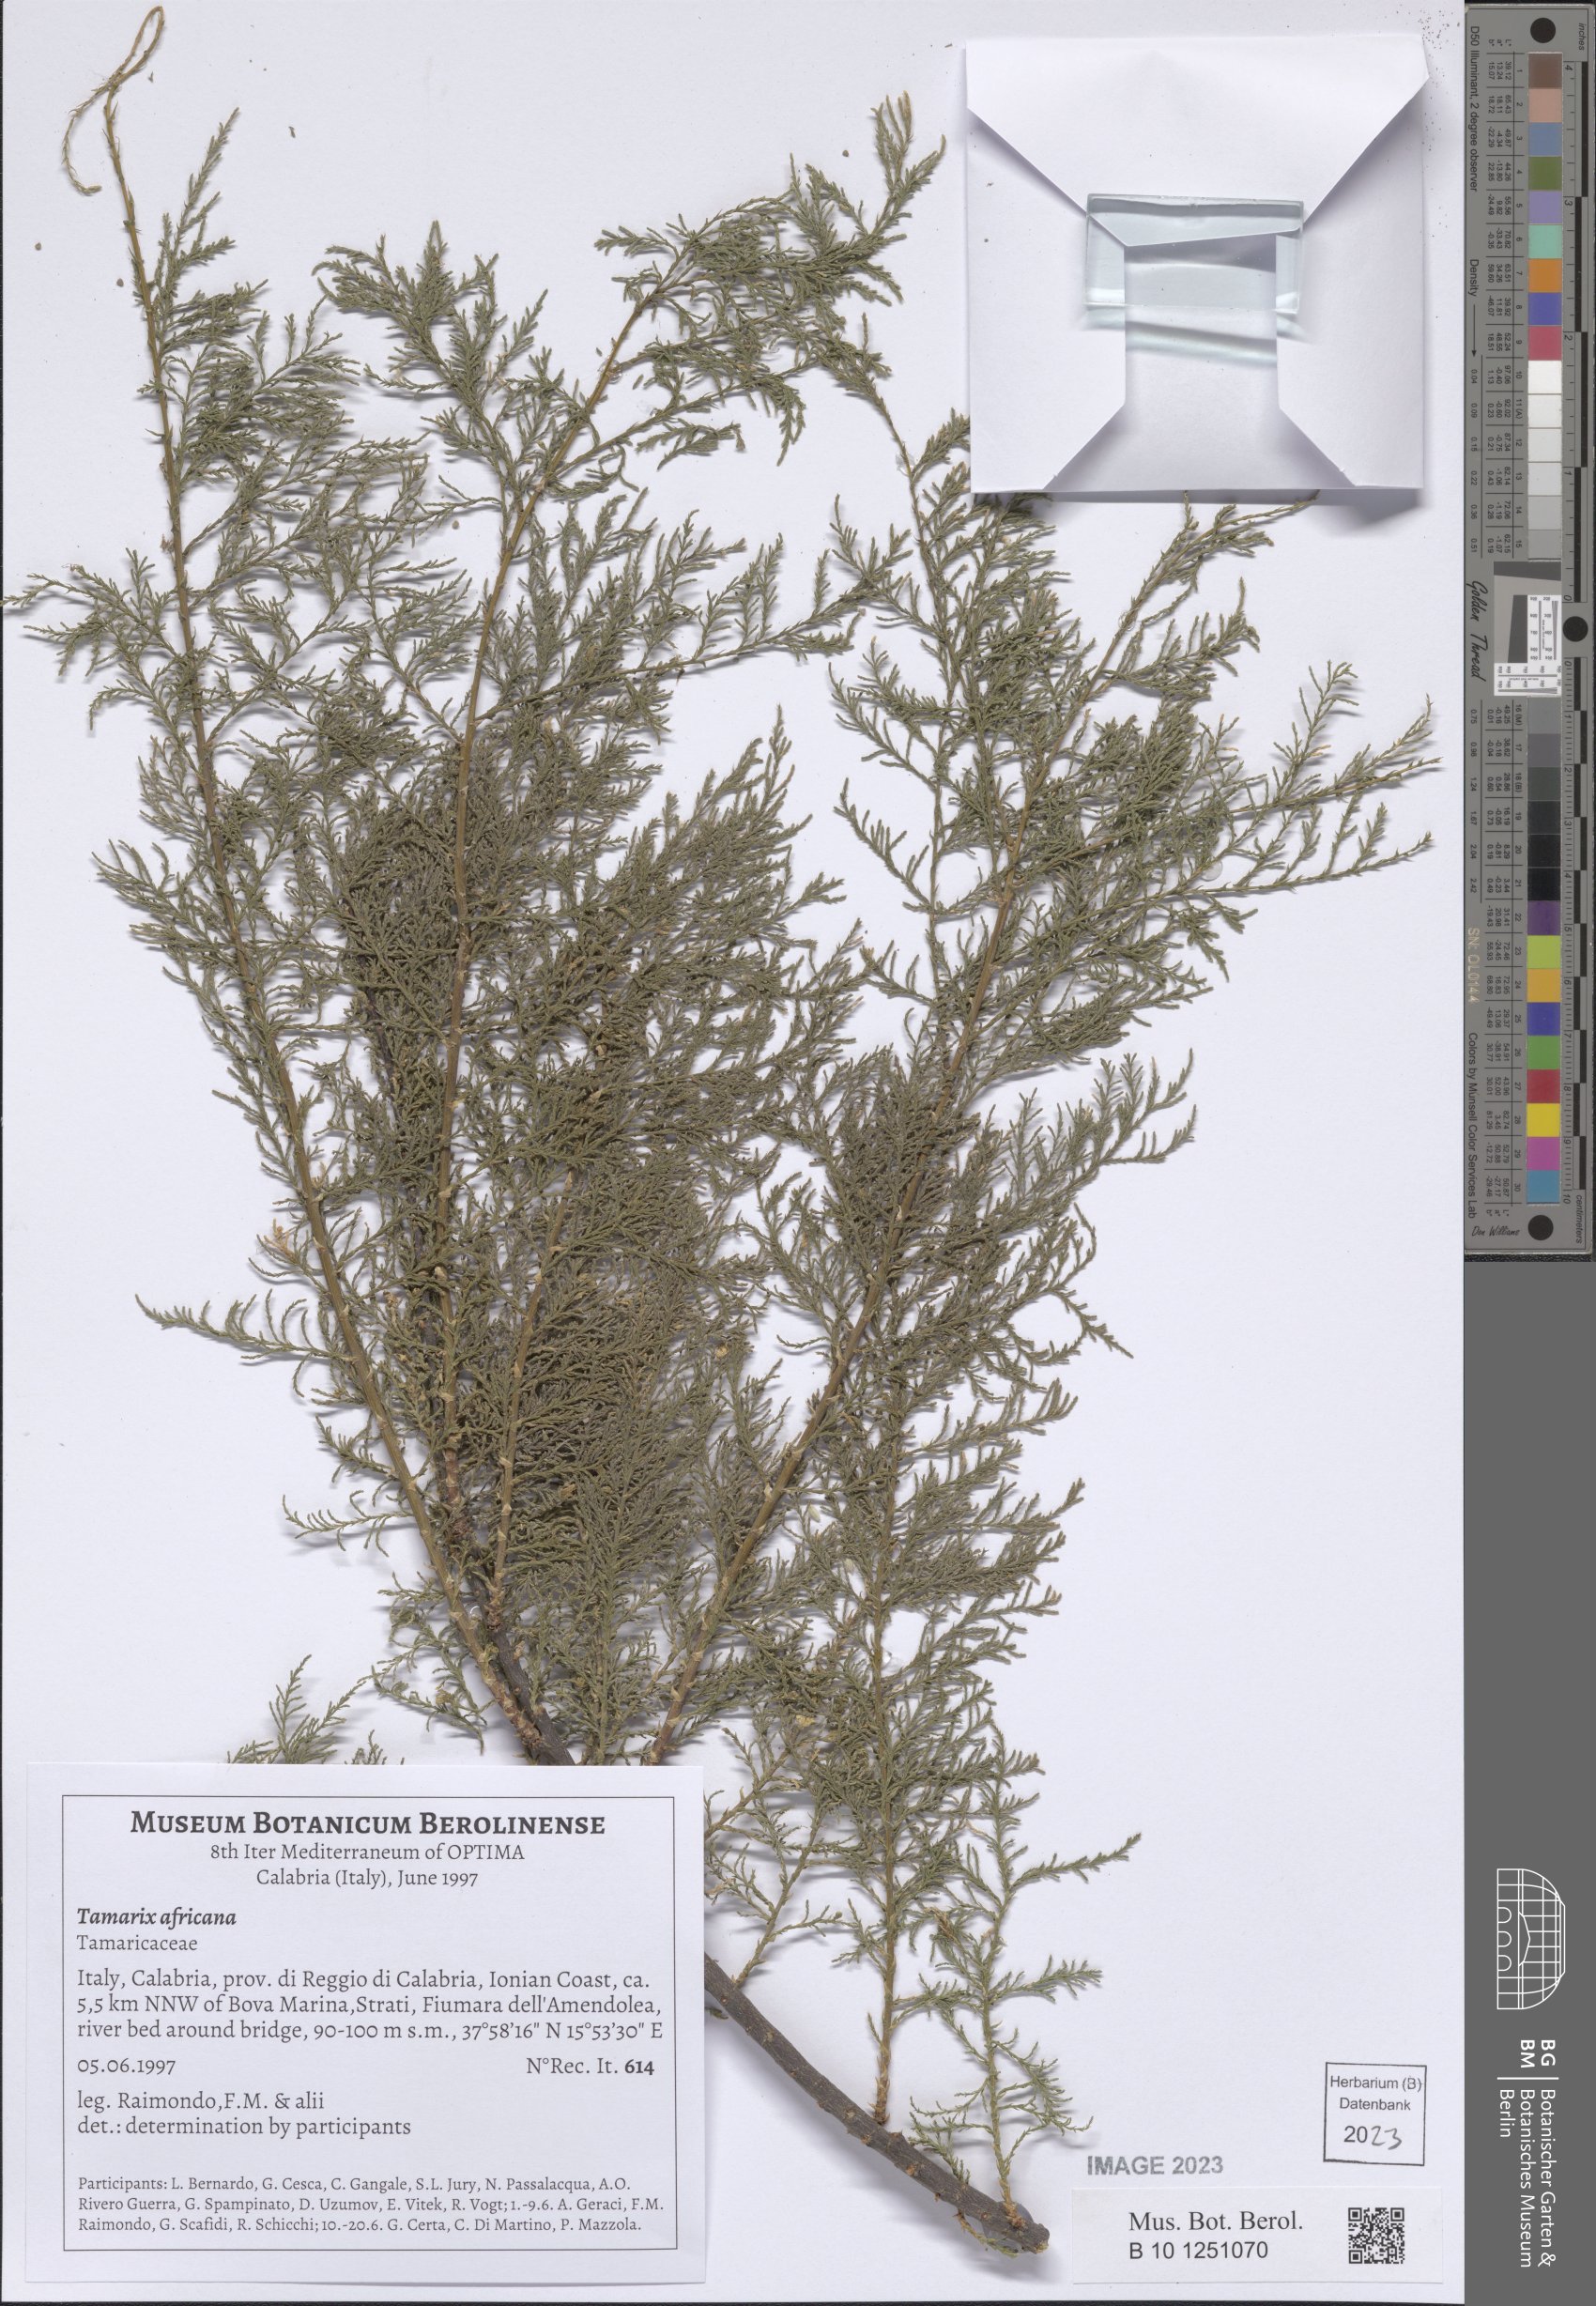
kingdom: Plantae
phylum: Tracheophyta
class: Magnoliopsida
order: Caryophyllales
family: Tamaricaceae
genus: Tamarix
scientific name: Tamarix africana
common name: African tamarisk
